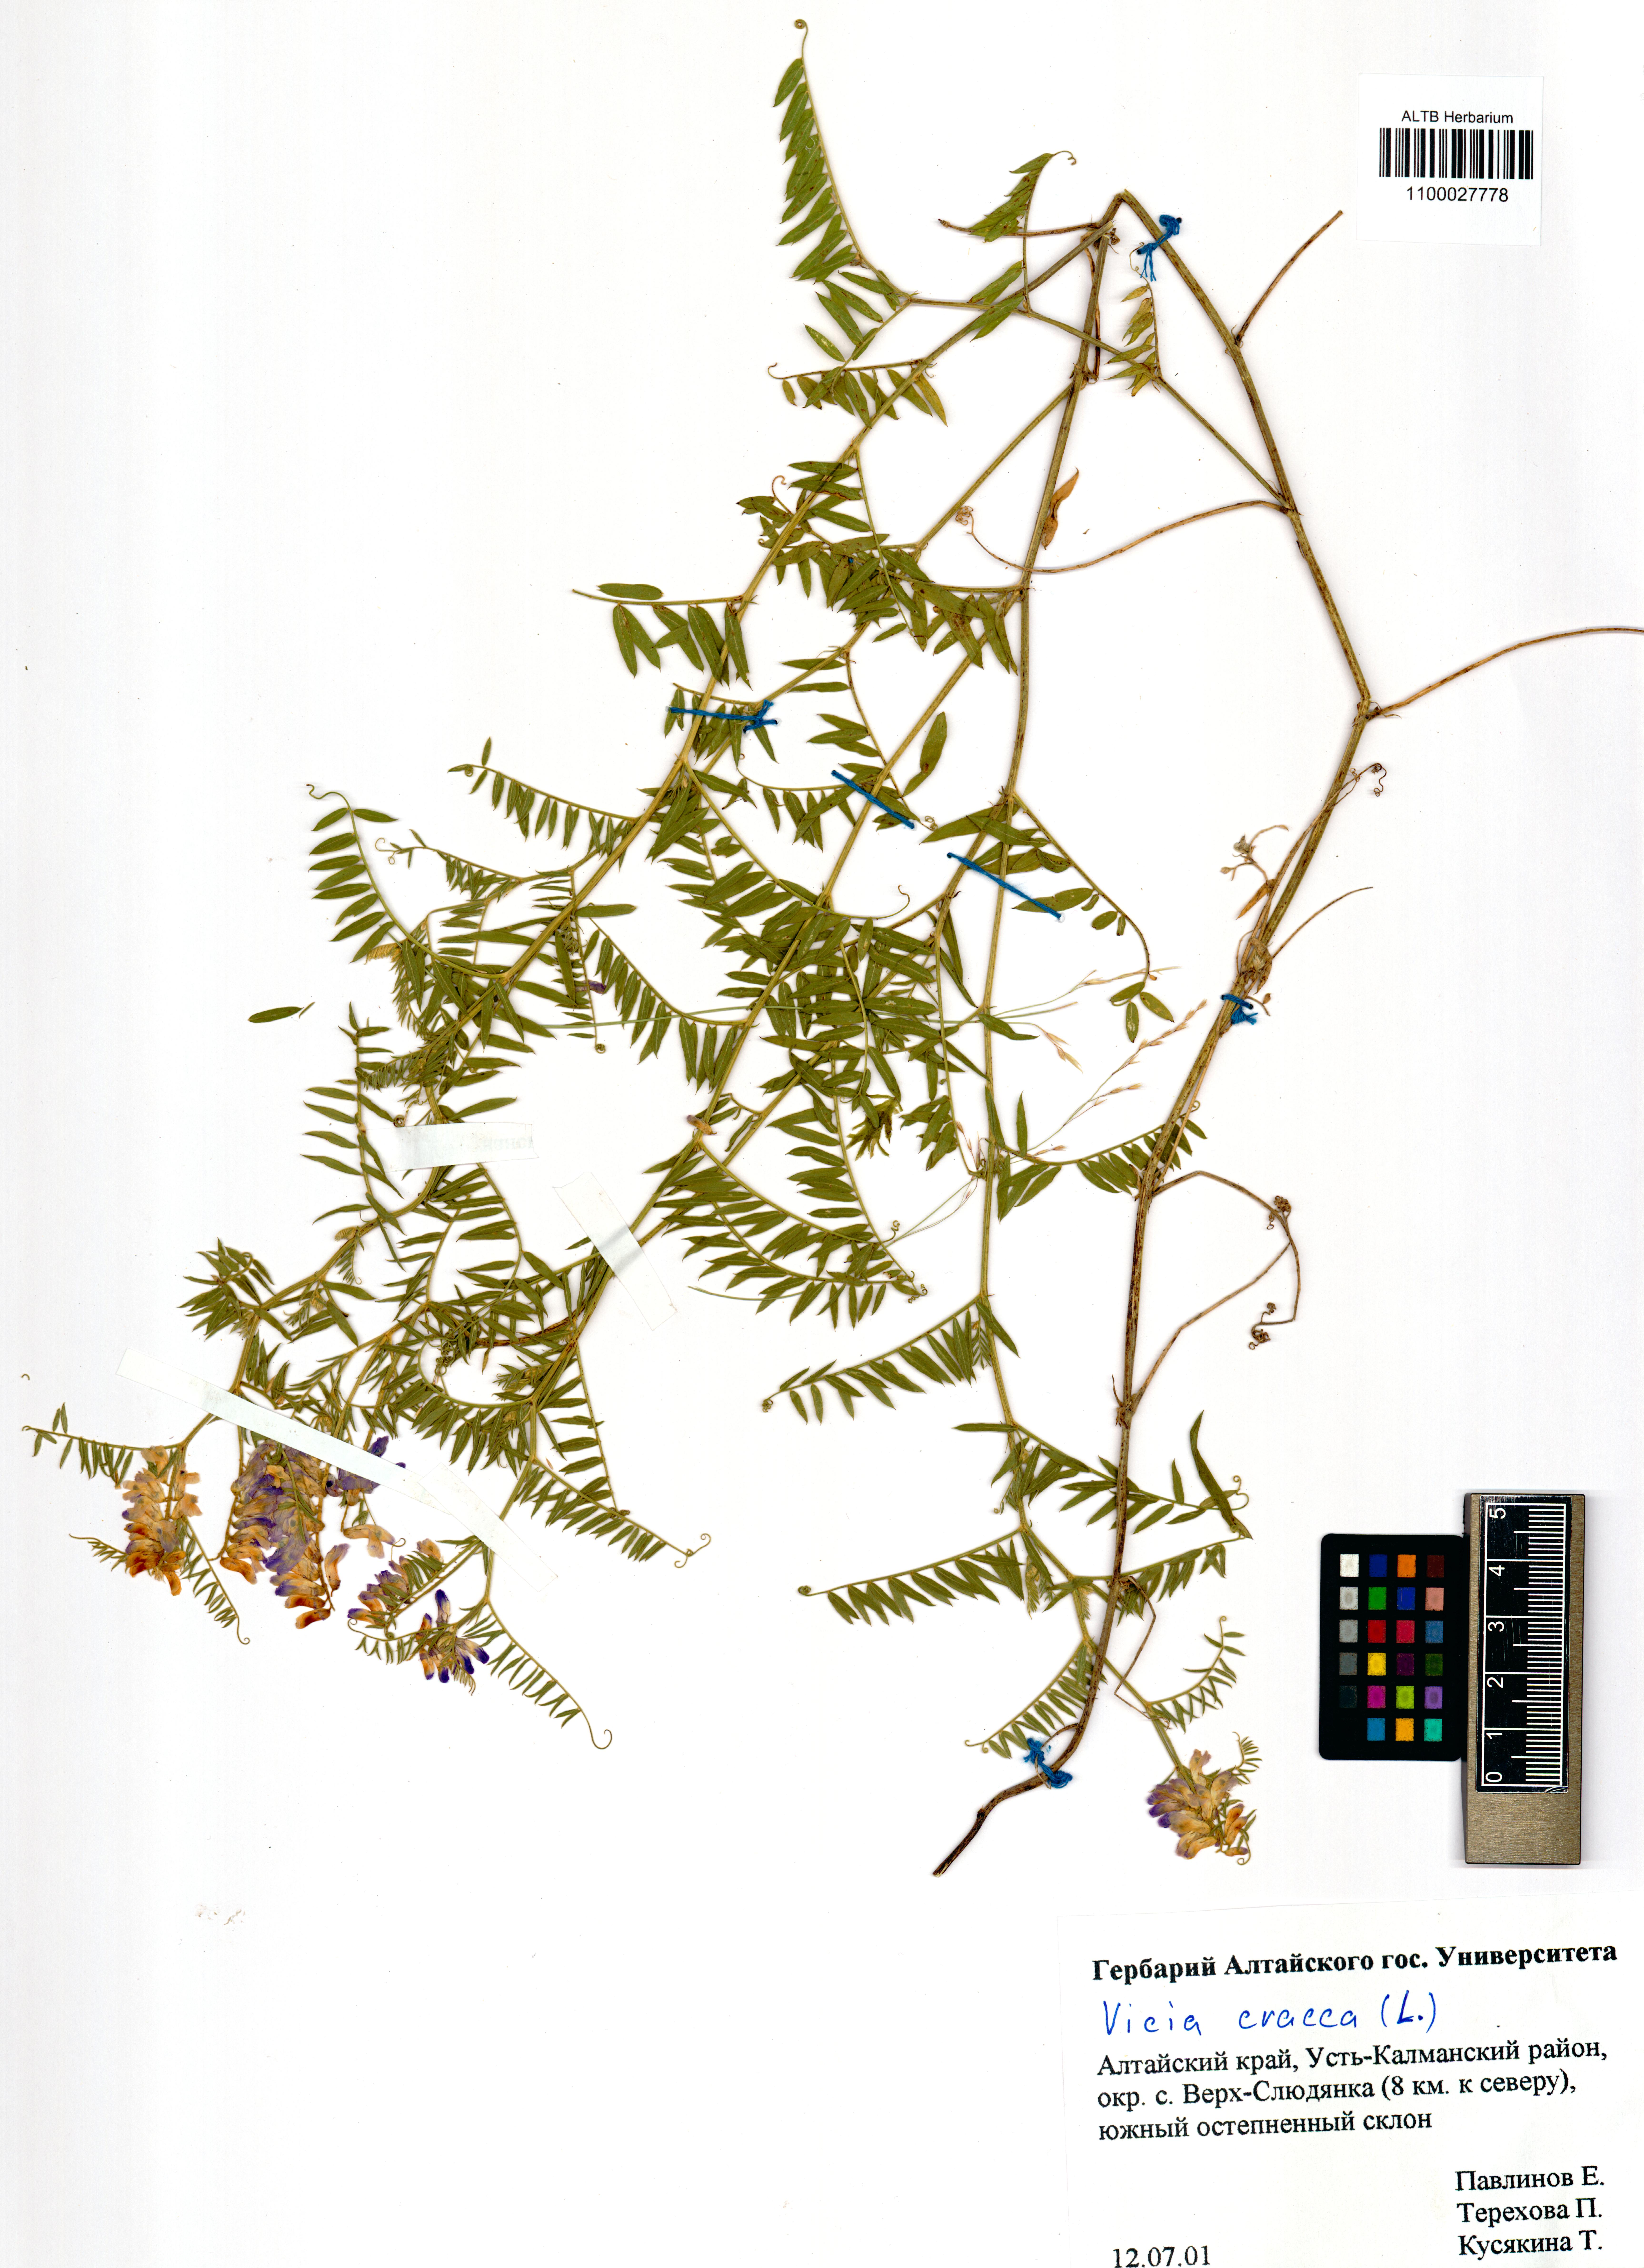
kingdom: Plantae
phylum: Tracheophyta
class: Magnoliopsida
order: Fabales
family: Fabaceae
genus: Vicia
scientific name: Vicia cracca
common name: Bird vetch
